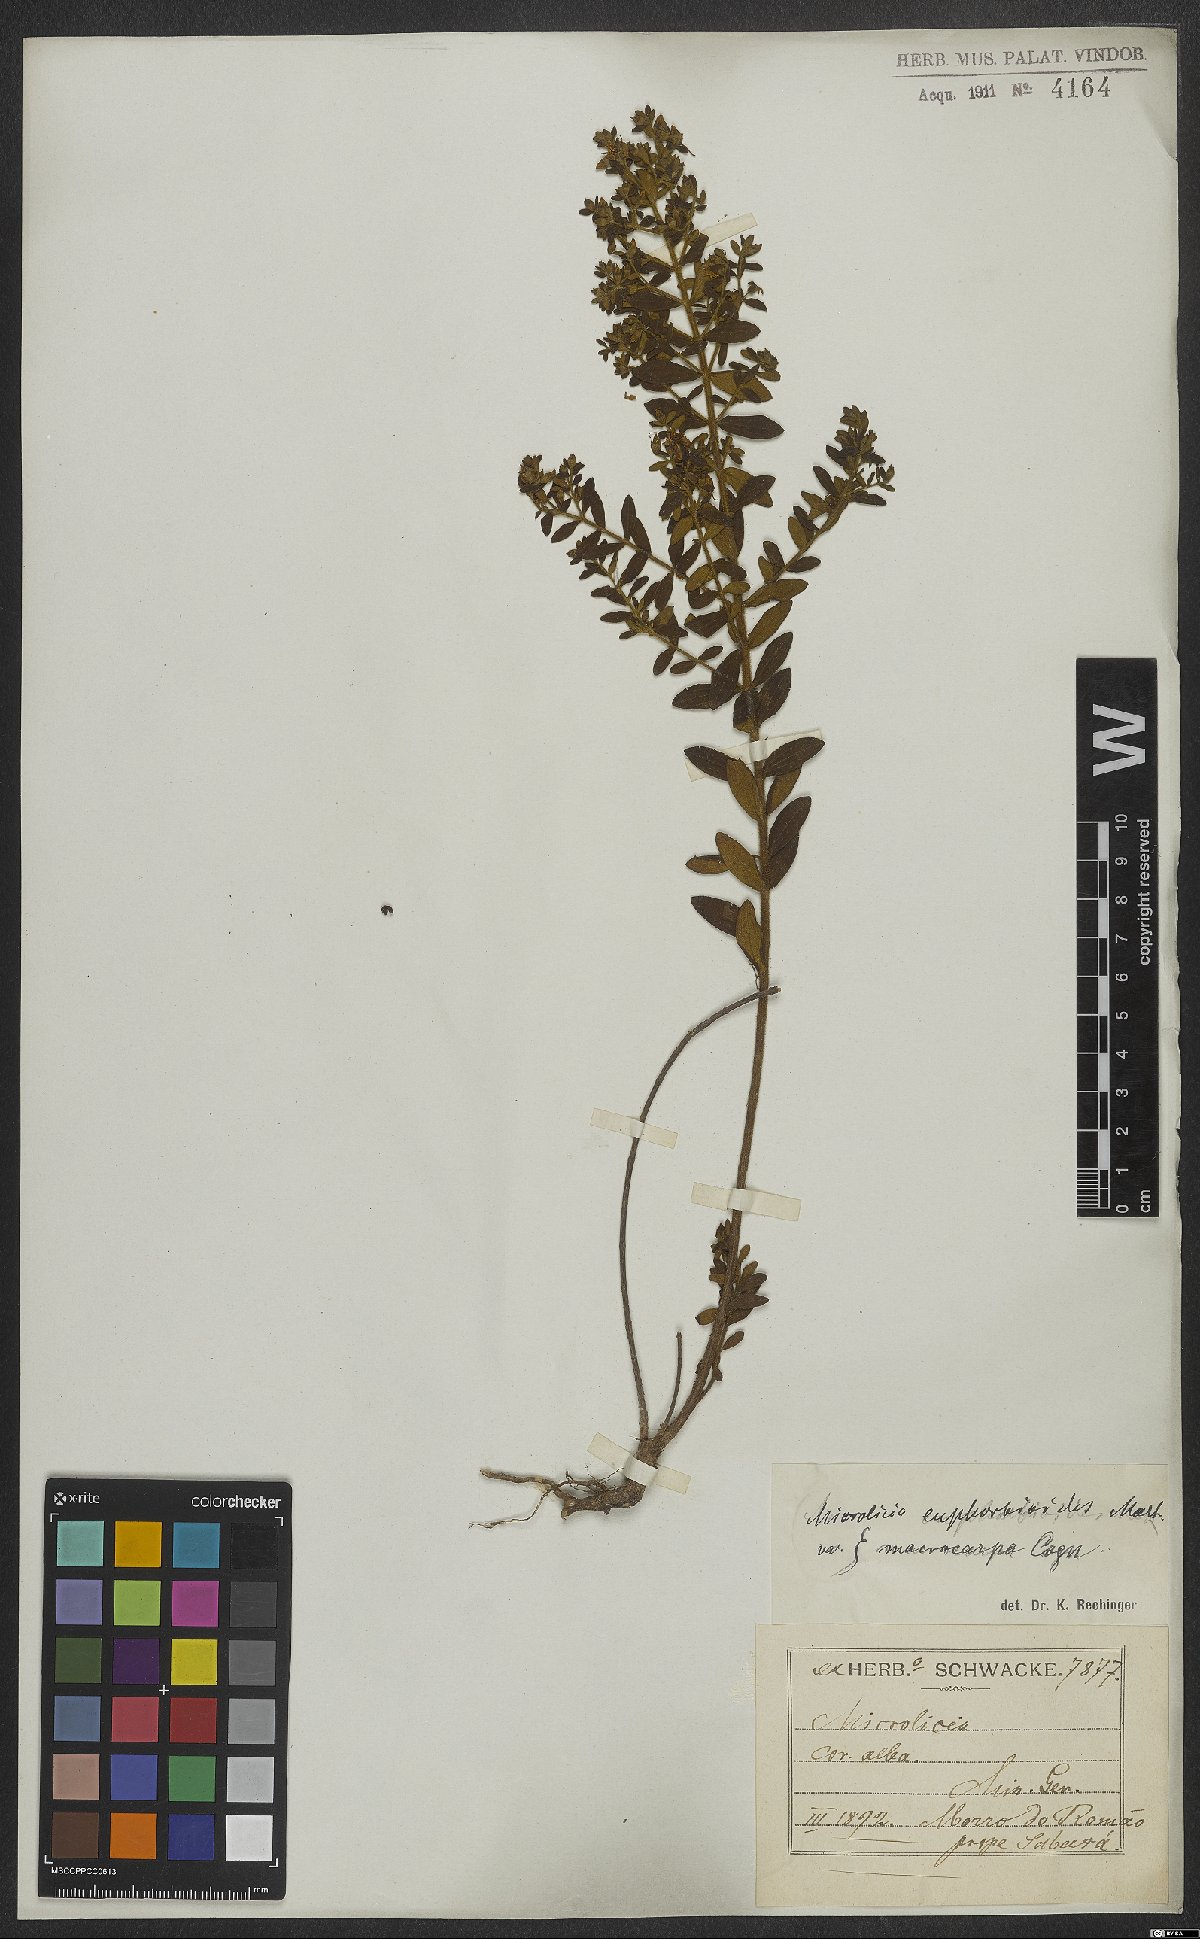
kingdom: Plantae
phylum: Tracheophyta
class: Magnoliopsida
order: Myrtales
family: Melastomataceae
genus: Microlicia
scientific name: Microlicia euphorbioides
